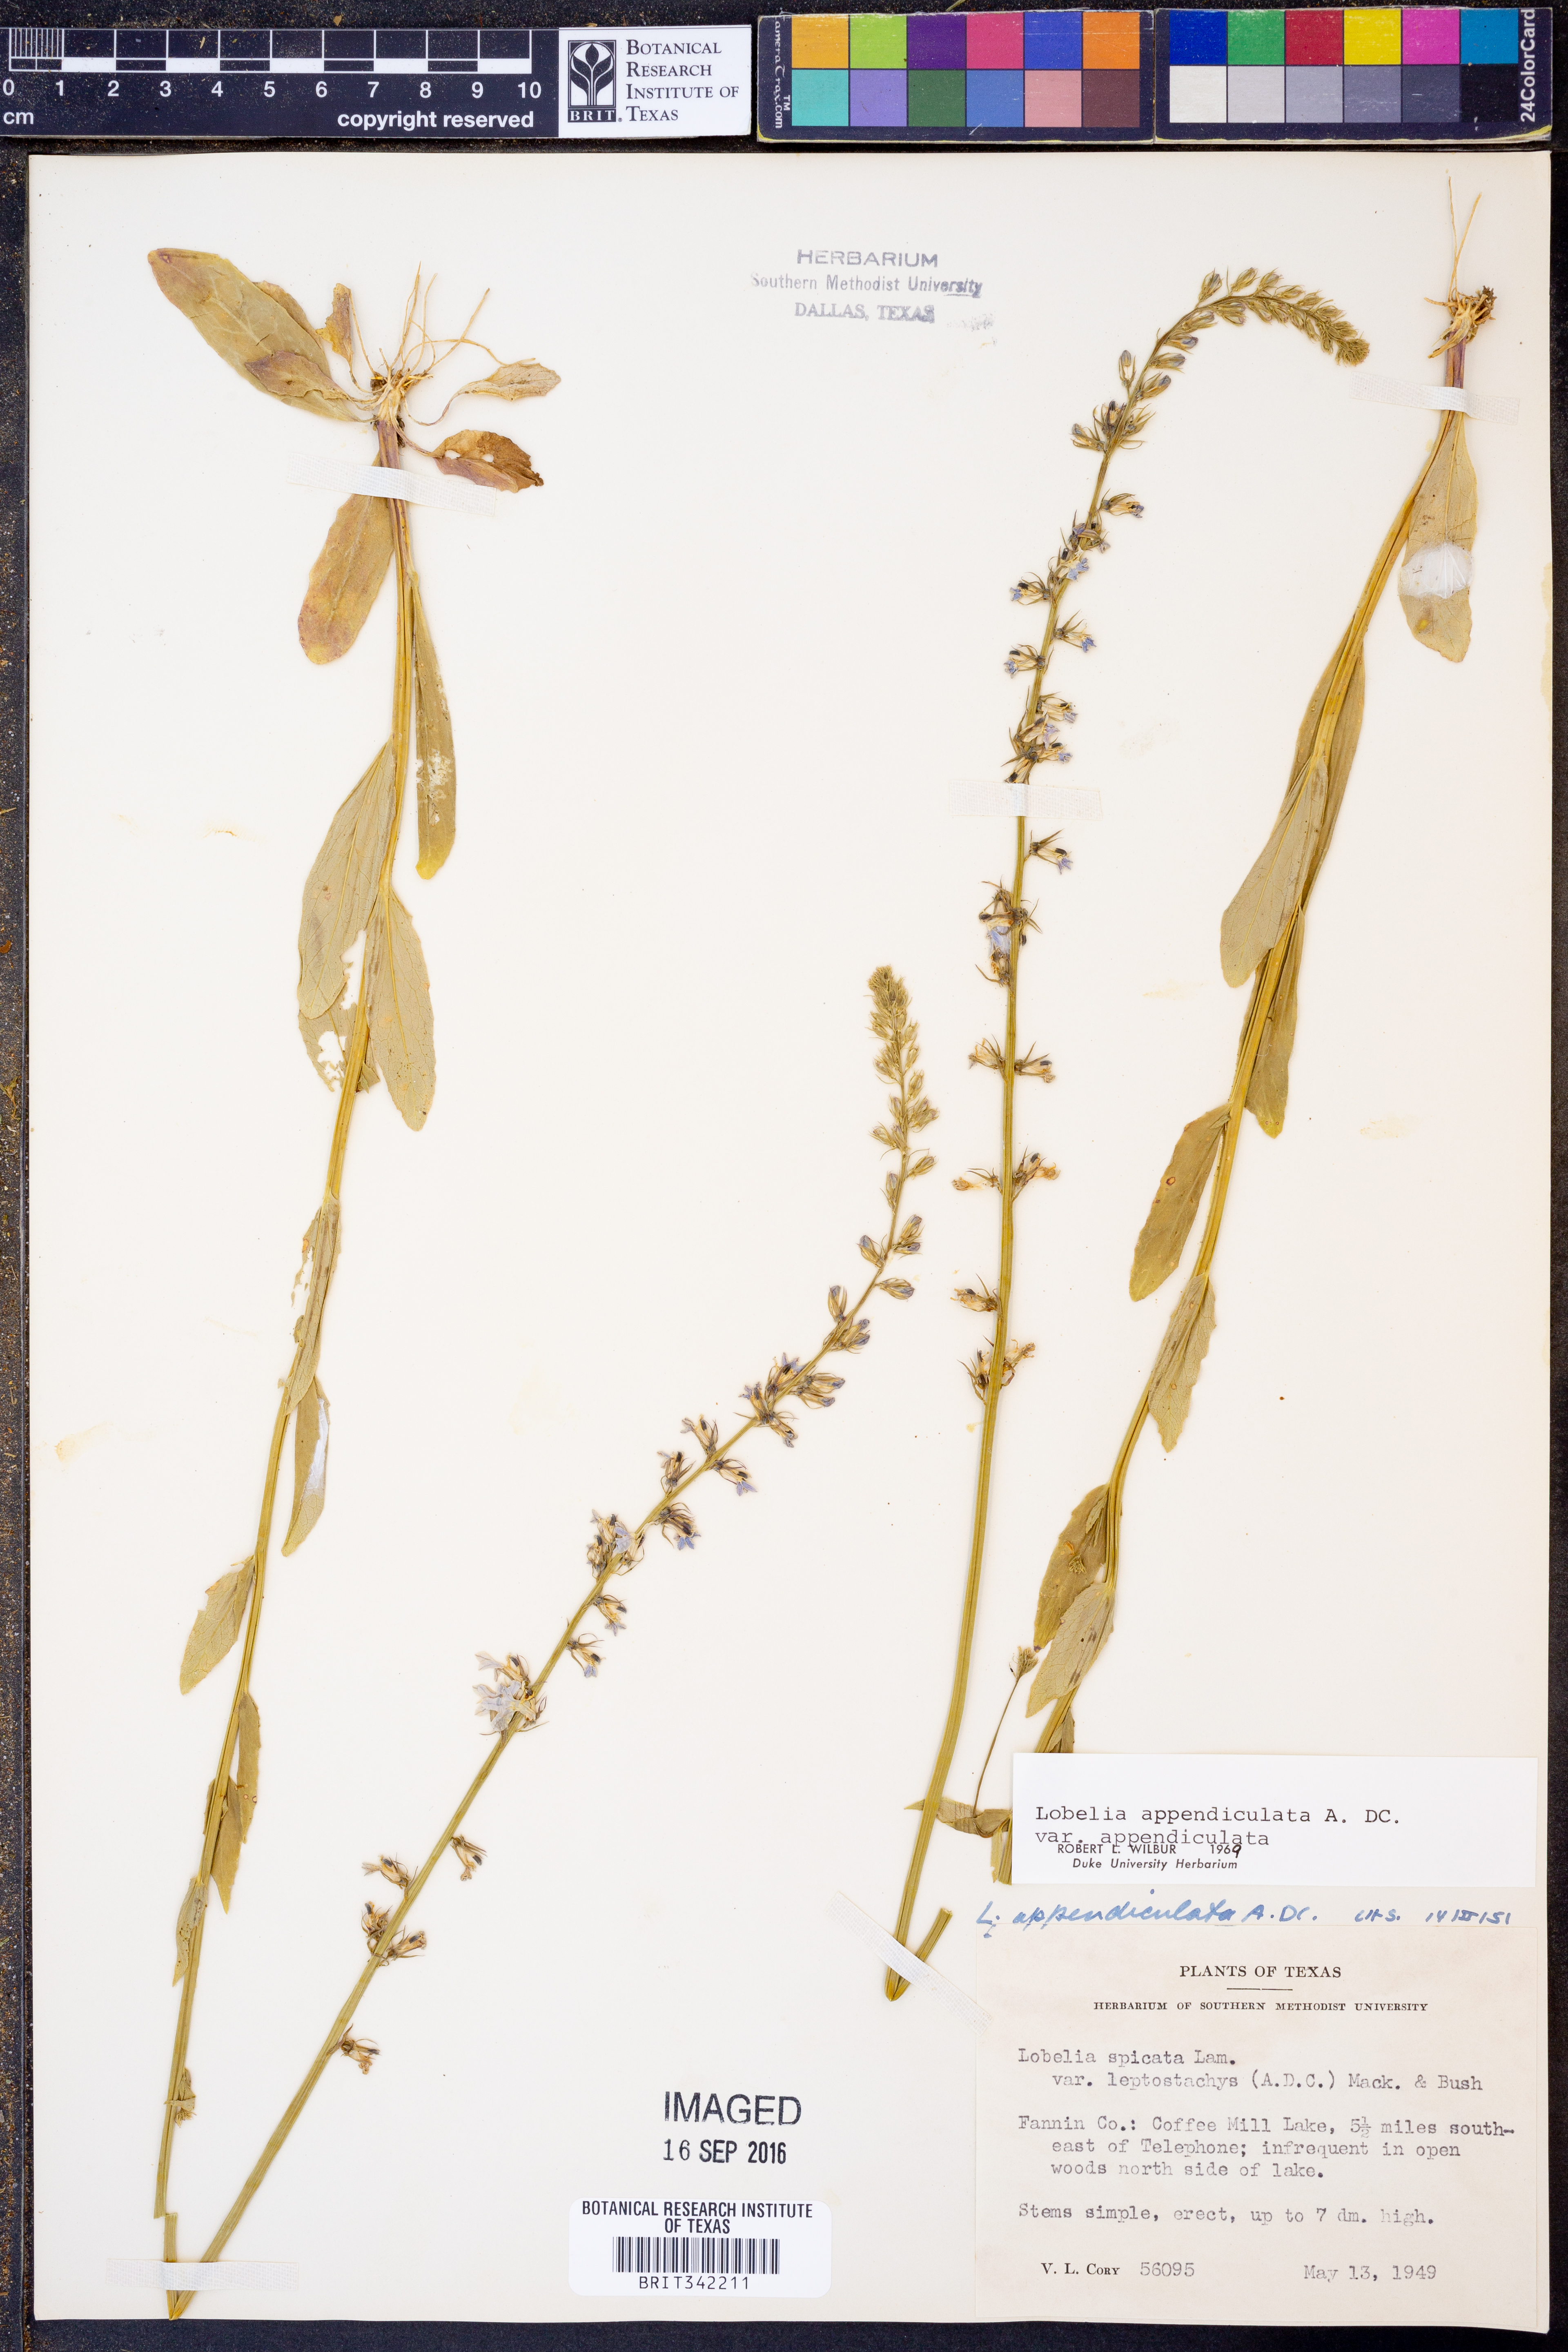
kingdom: Plantae
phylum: Tracheophyta
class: Magnoliopsida
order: Asterales
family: Campanulaceae
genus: Lobelia
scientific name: Lobelia appendiculata
